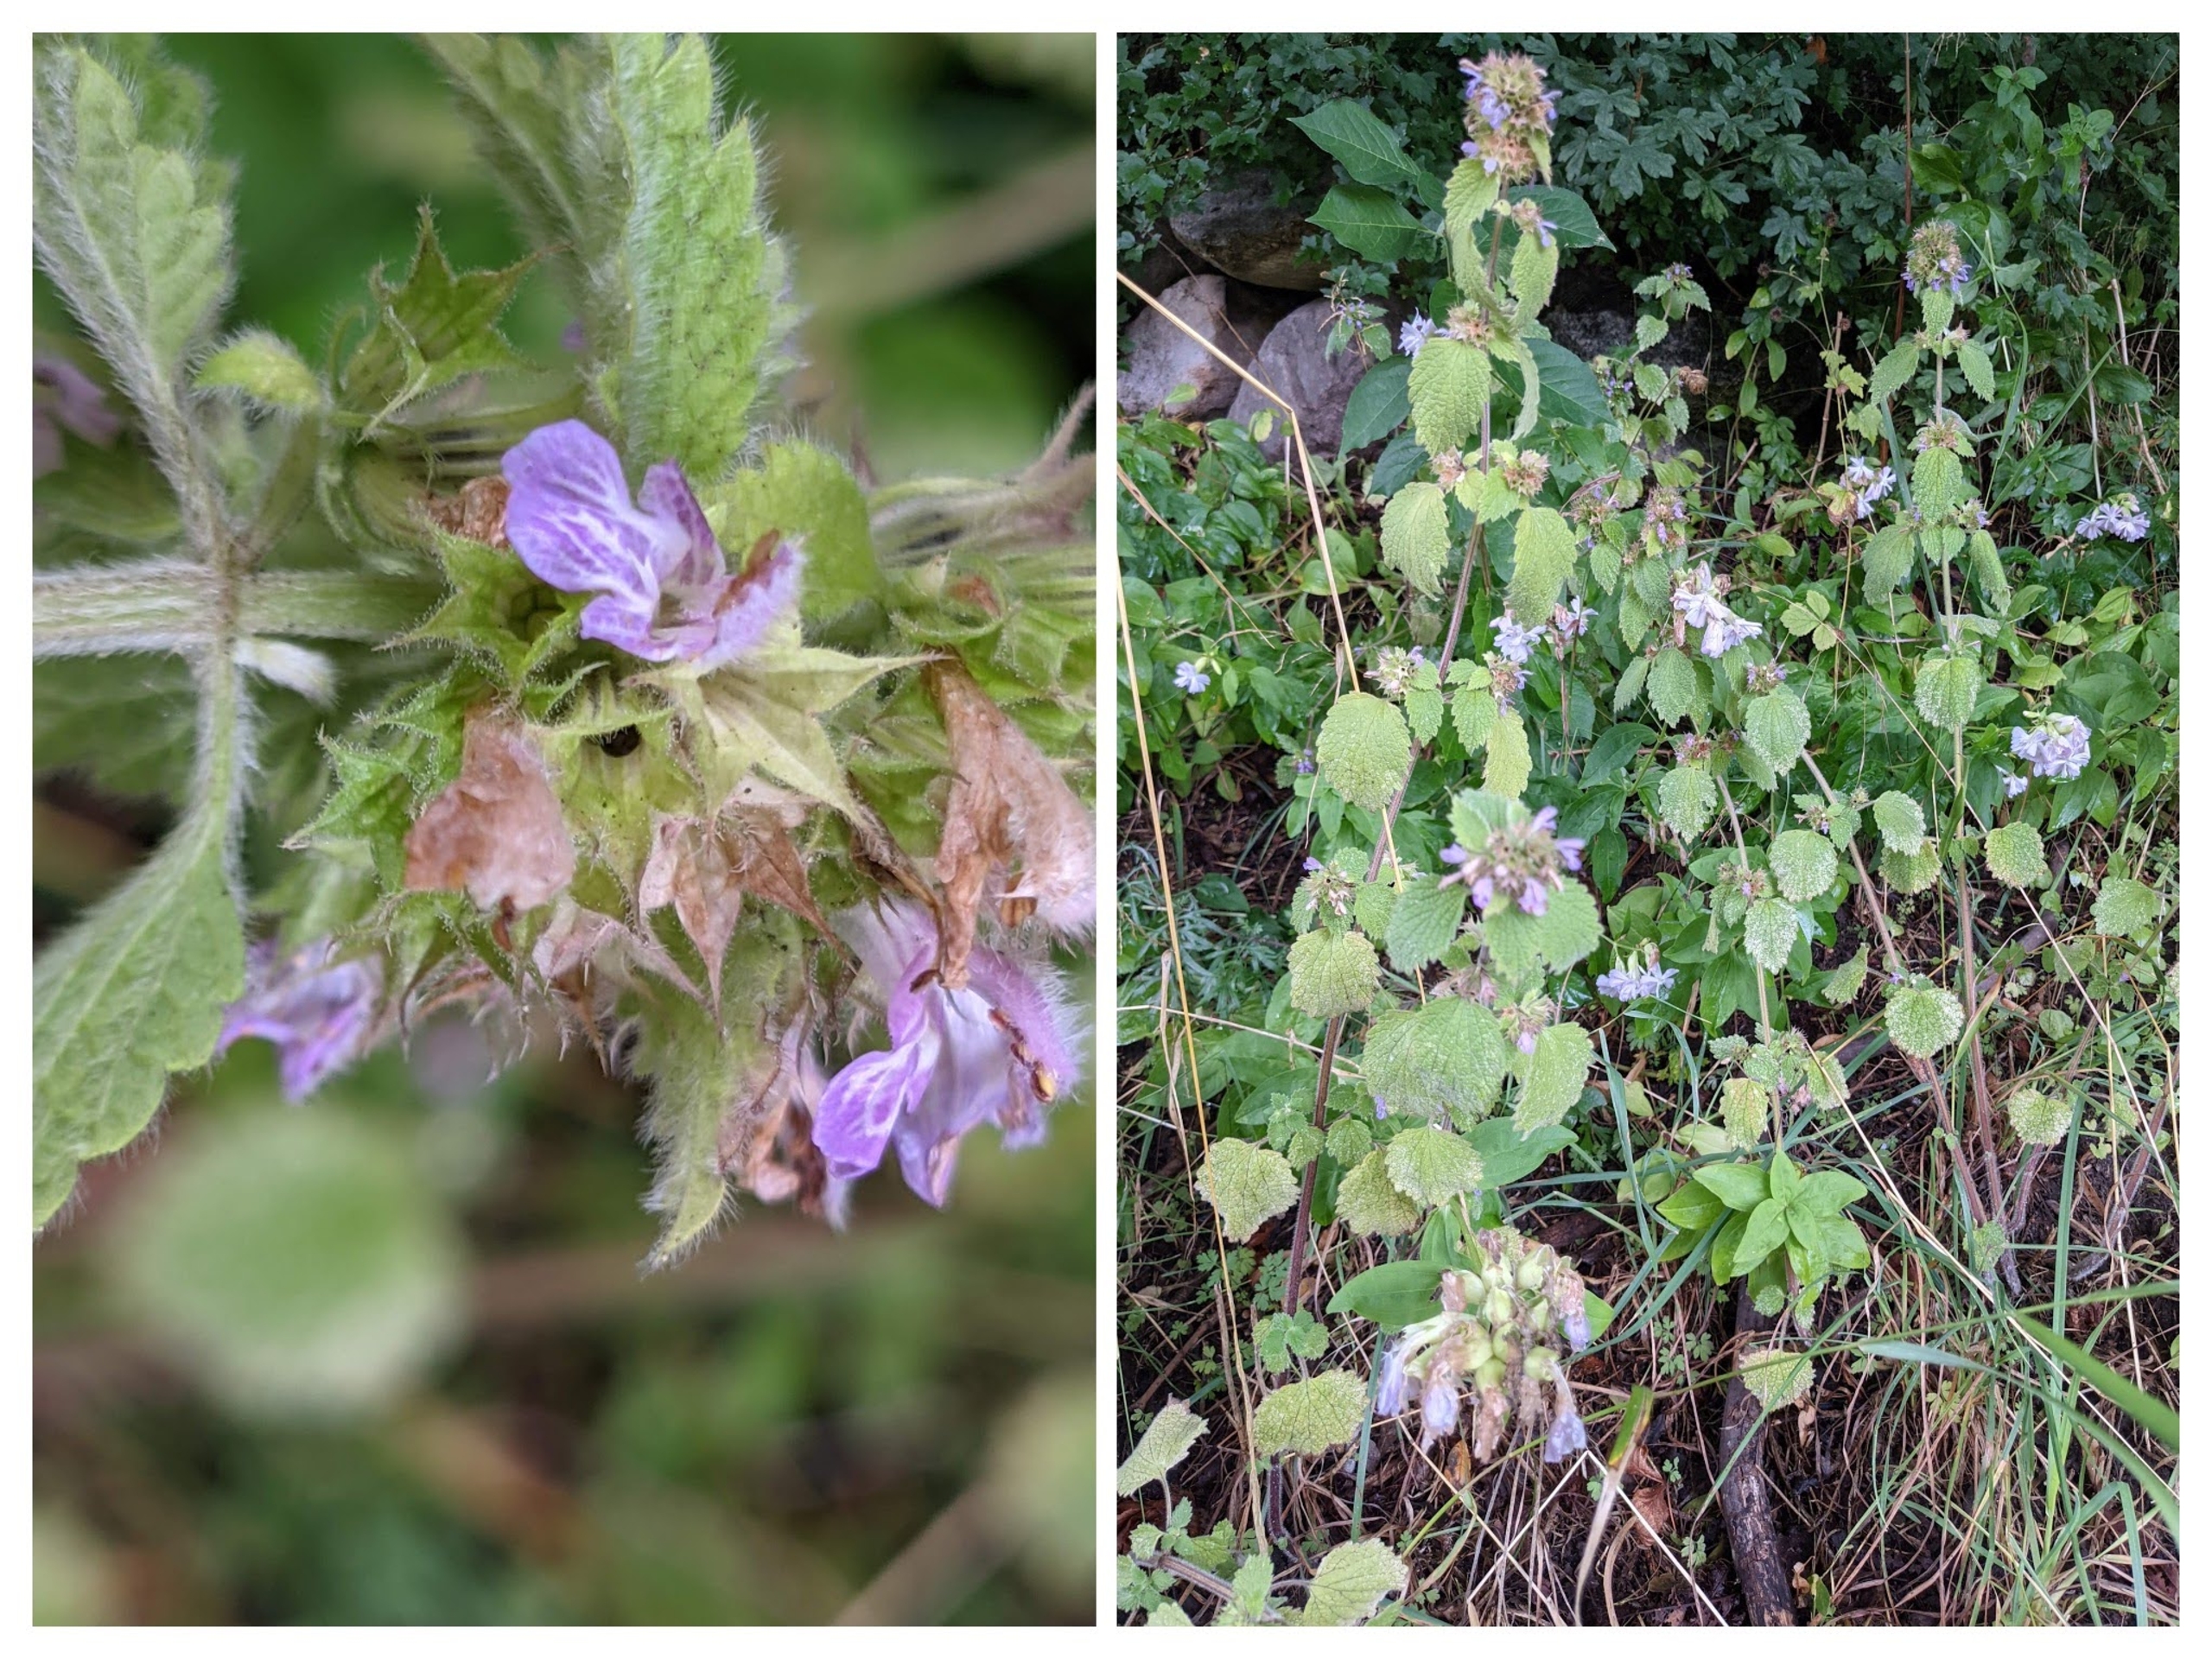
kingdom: Plantae
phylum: Tracheophyta
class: Magnoliopsida
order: Lamiales
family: Lamiaceae
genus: Ballota
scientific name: Ballota nigra
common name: Tandbæger
